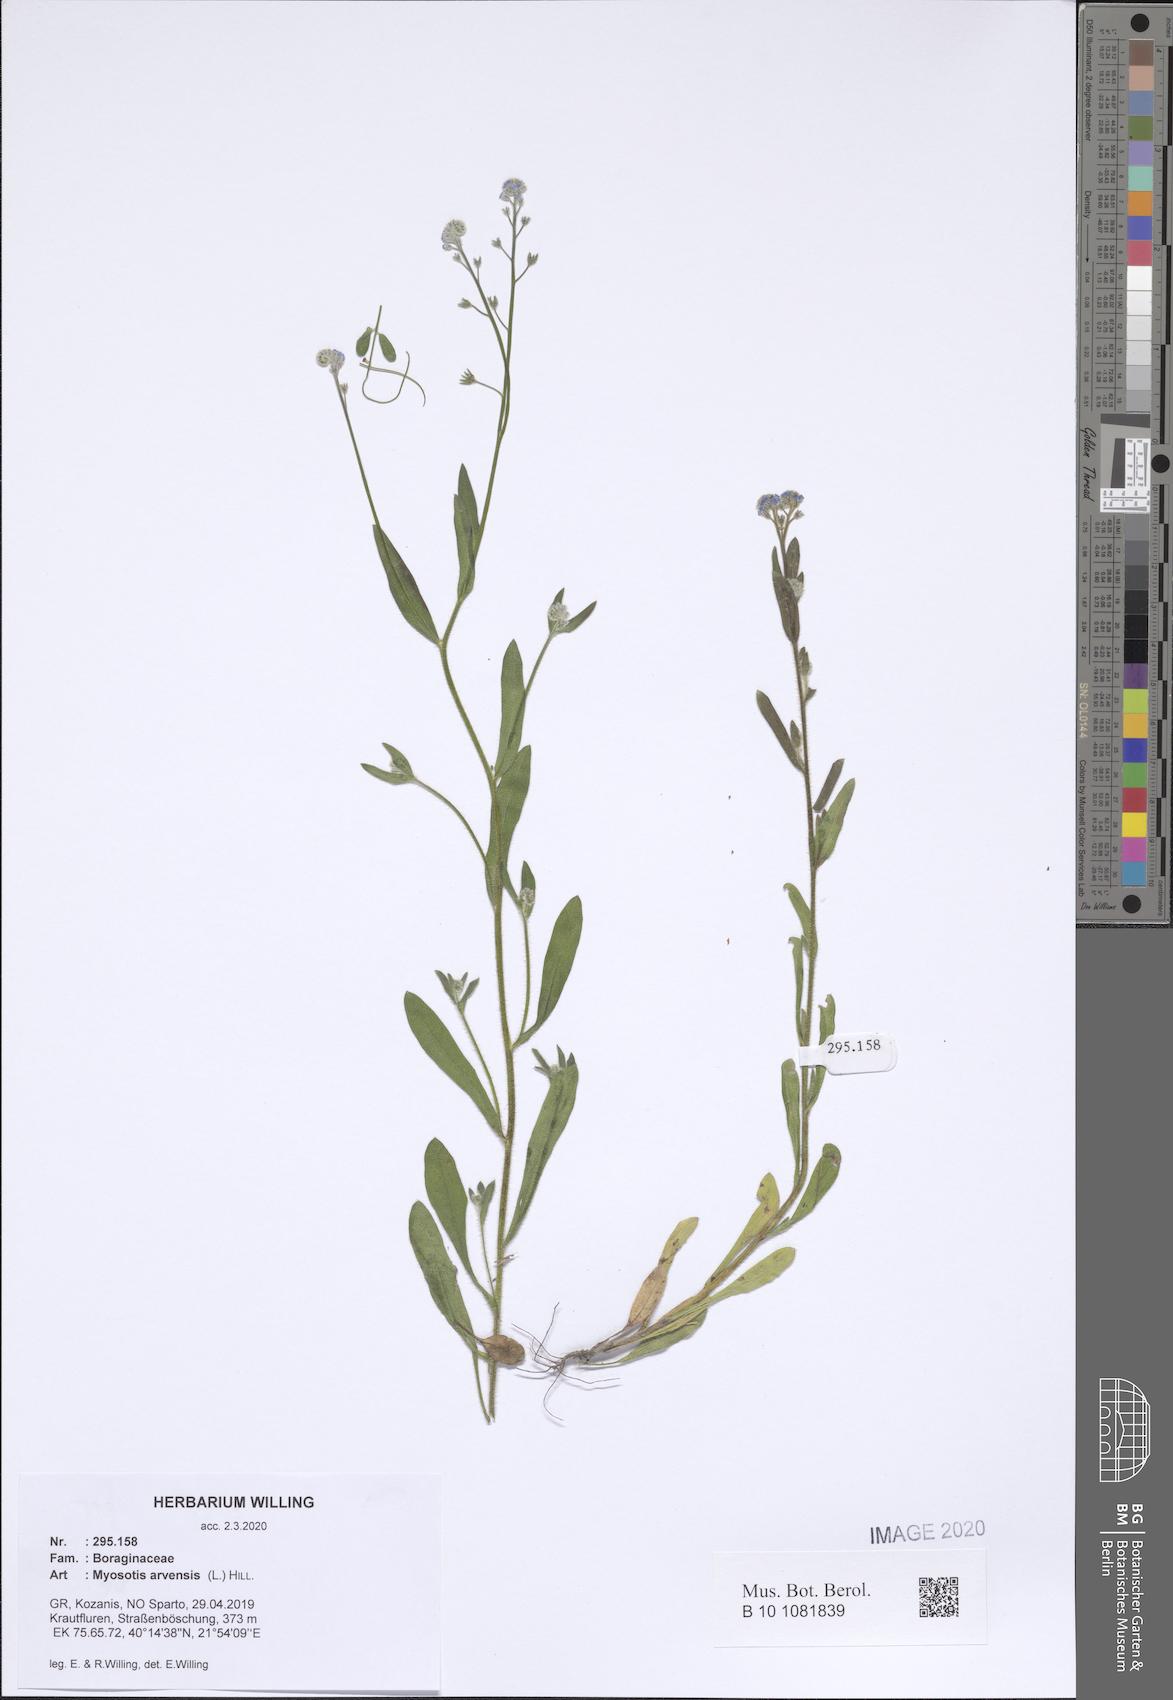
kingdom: Plantae
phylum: Tracheophyta
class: Magnoliopsida
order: Boraginales
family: Boraginaceae
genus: Myosotis
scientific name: Myosotis arvensis
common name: Field forget-me-not
